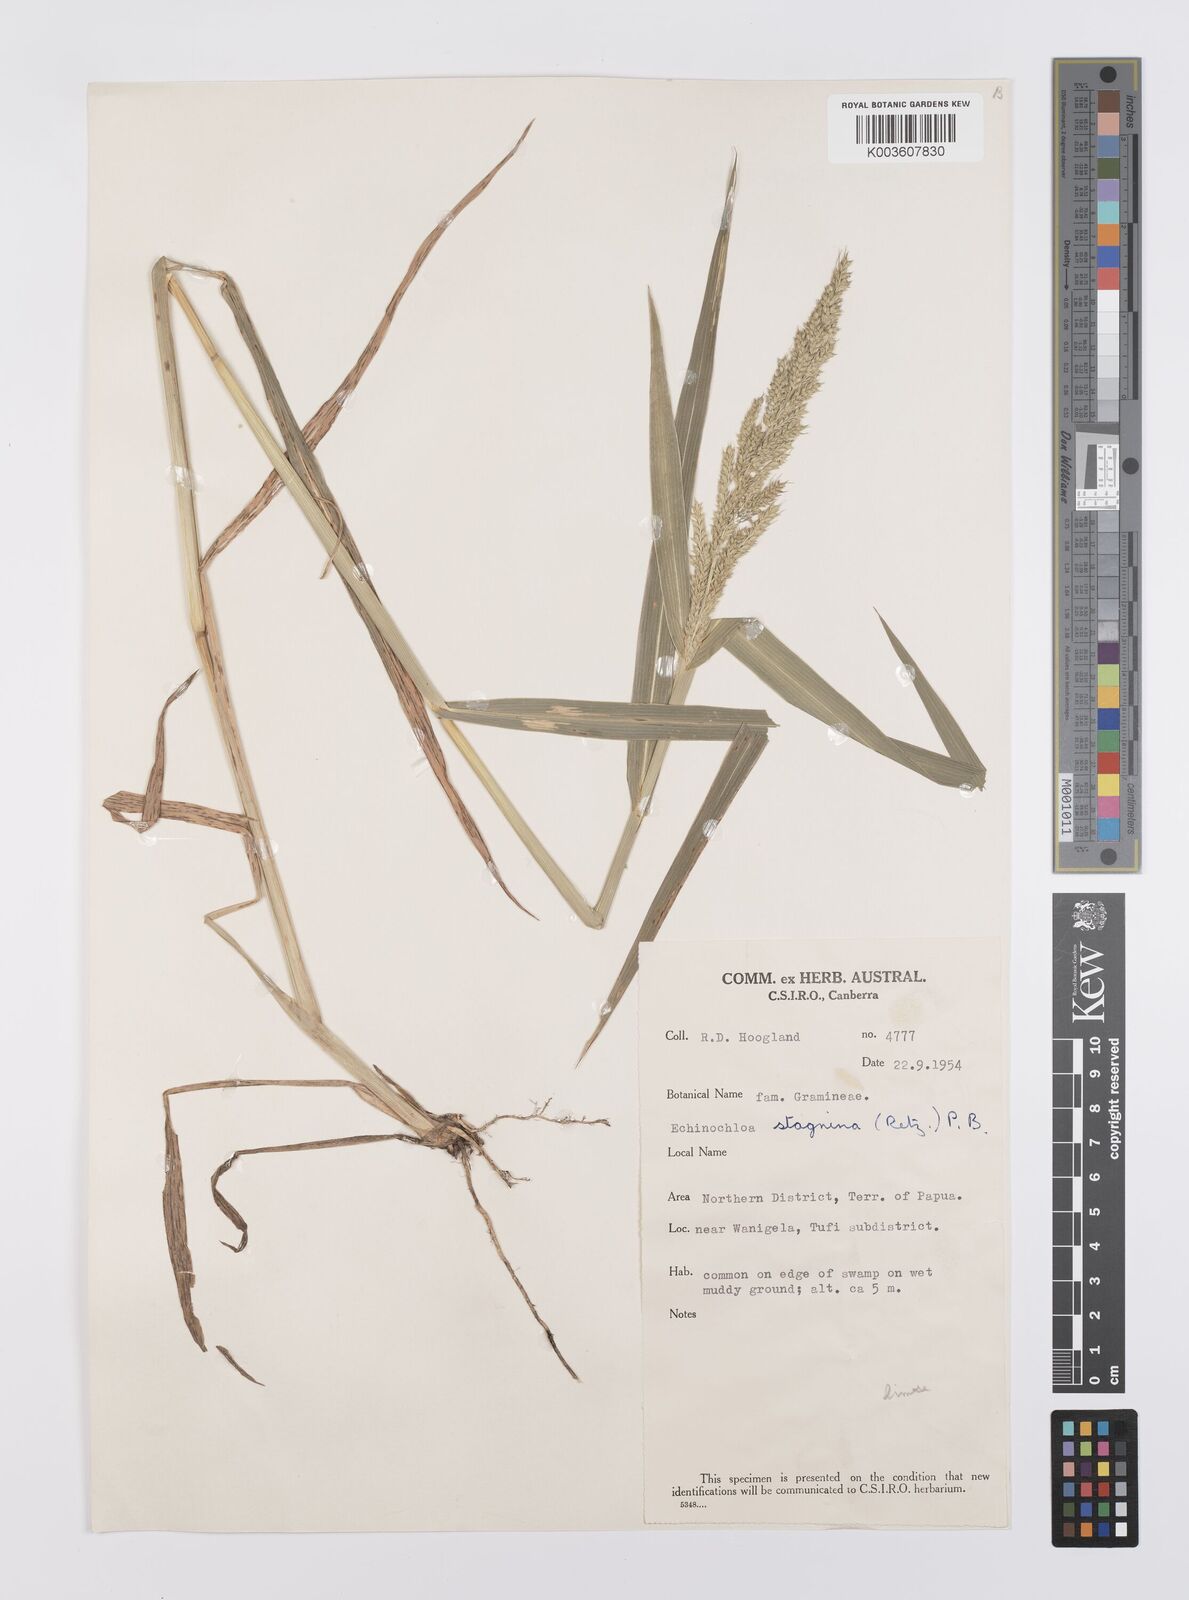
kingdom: Plantae
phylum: Tracheophyta
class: Liliopsida
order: Poales
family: Poaceae
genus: Echinochloa
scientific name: Echinochloa crus-galli
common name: Cockspur
